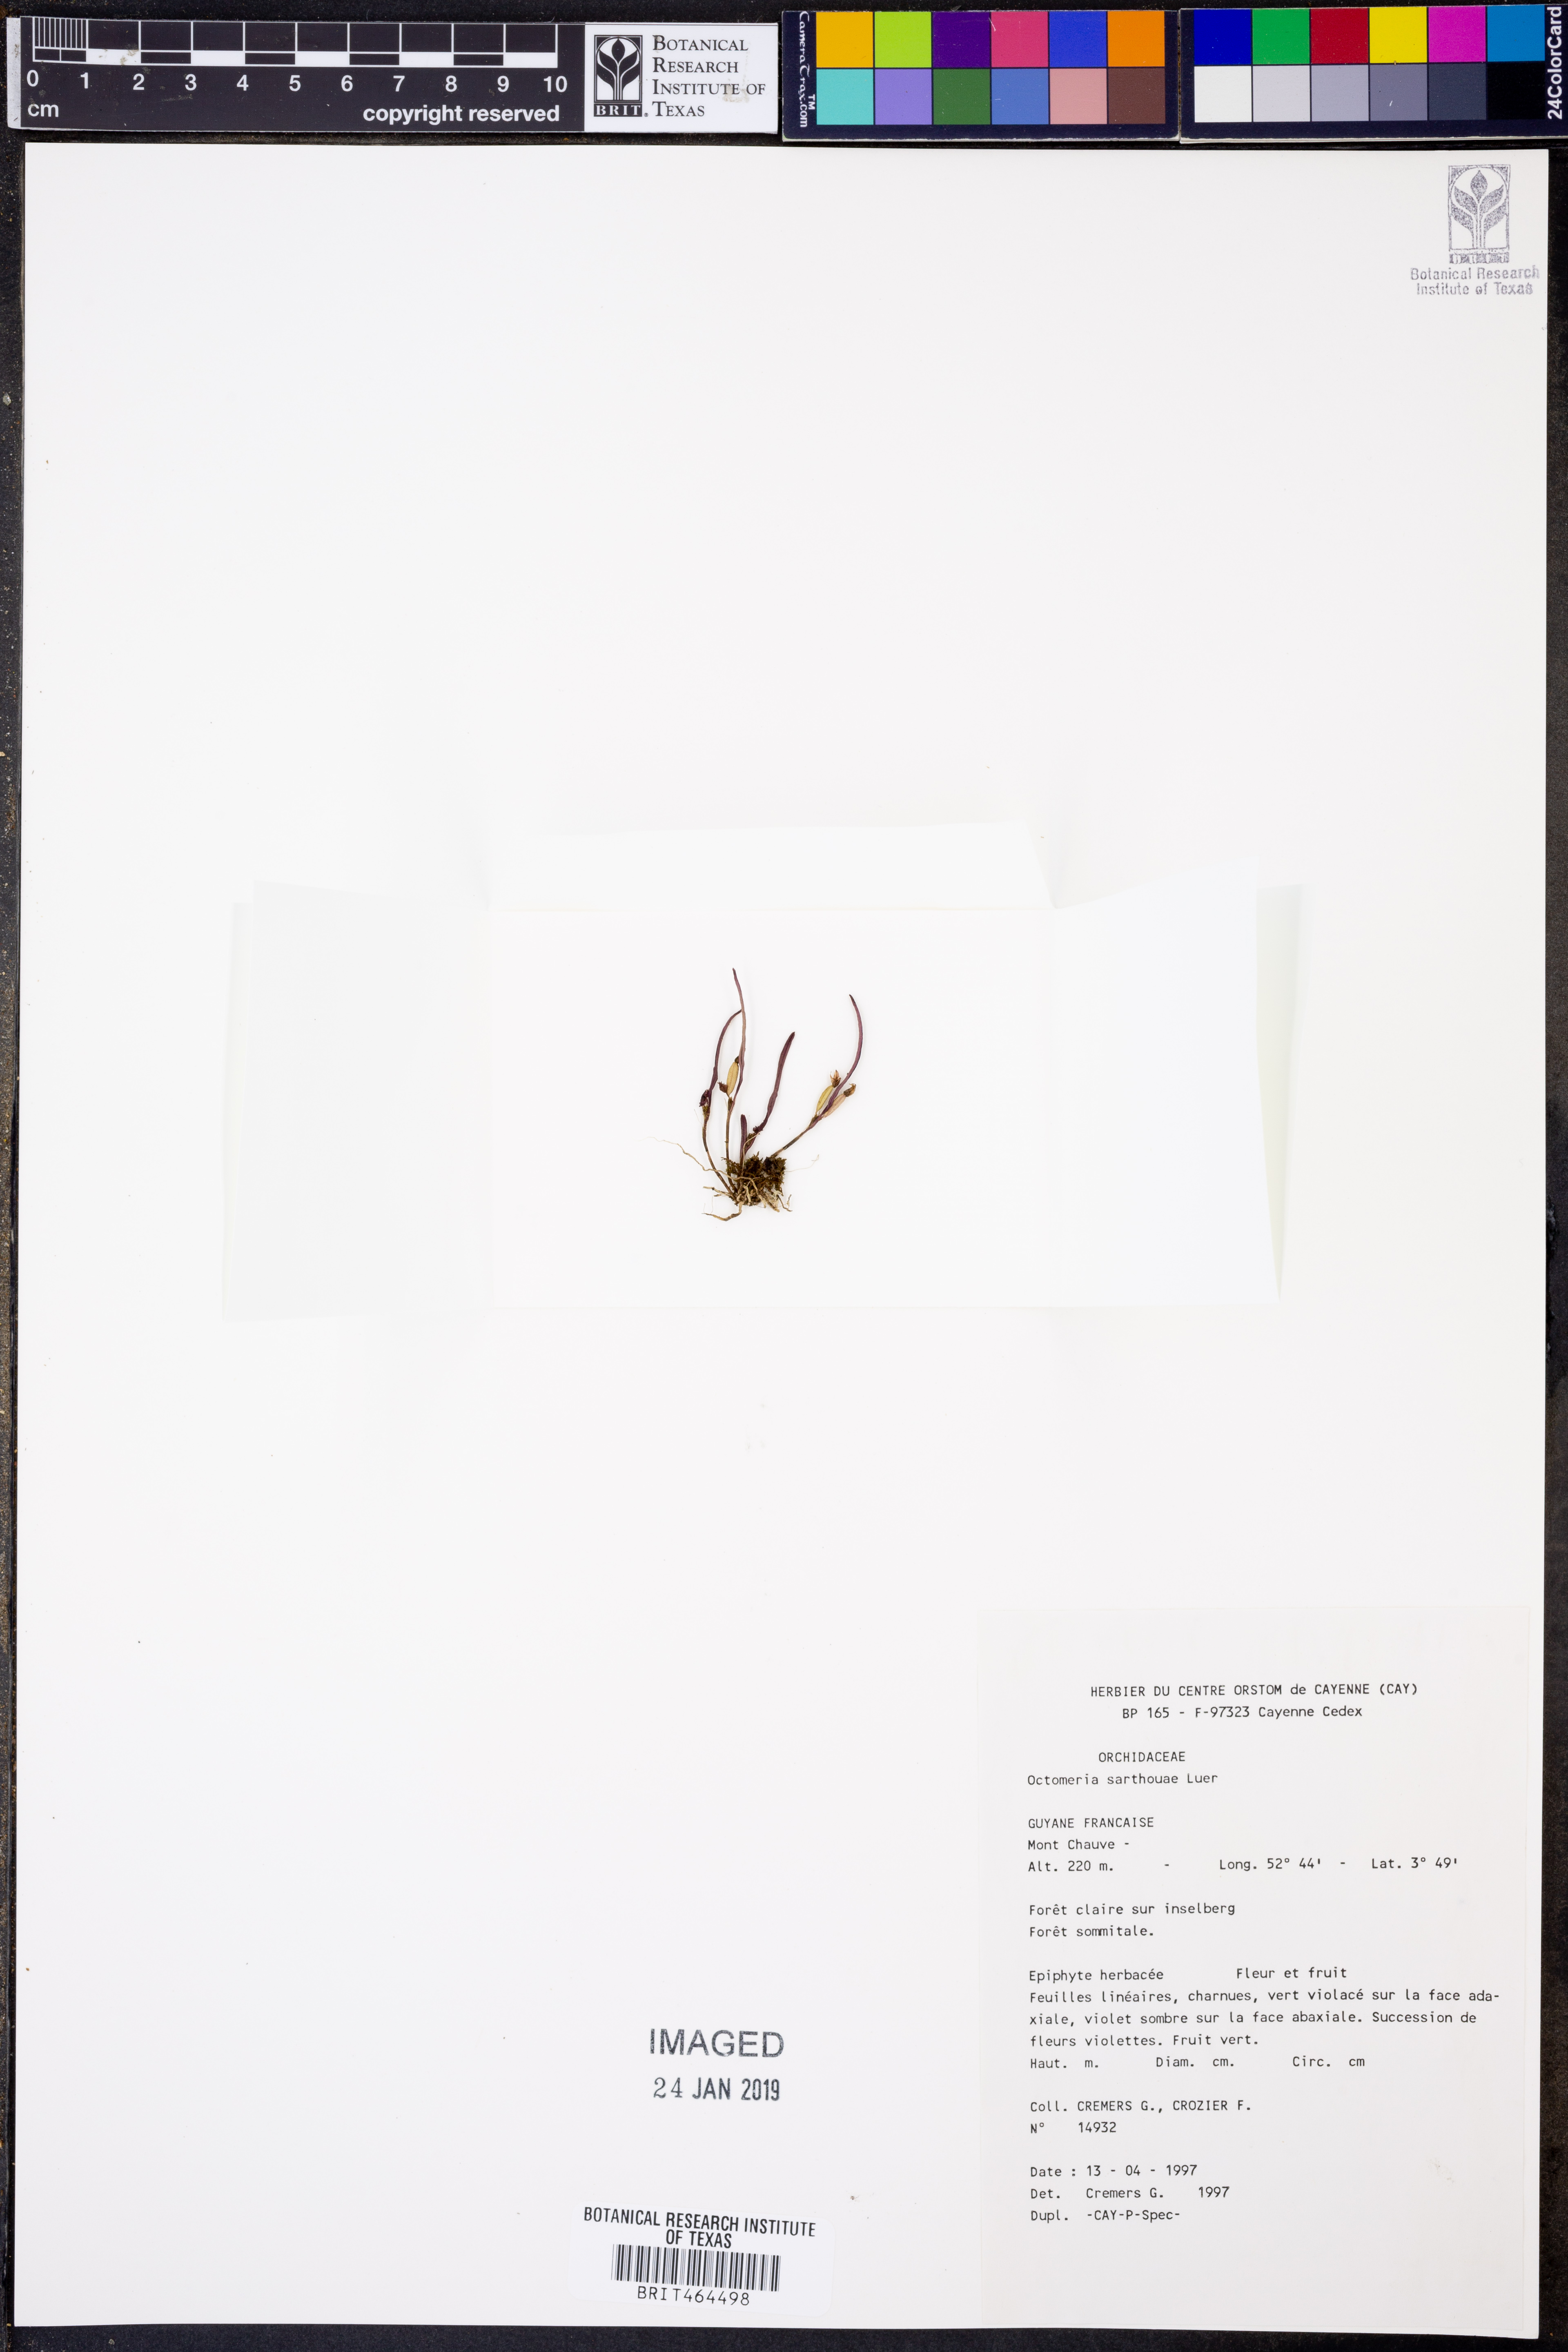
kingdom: Plantae
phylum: Tracheophyta
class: Liliopsida
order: Asparagales
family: Orchidaceae
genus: Octomeria
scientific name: Octomeria sarthouae
